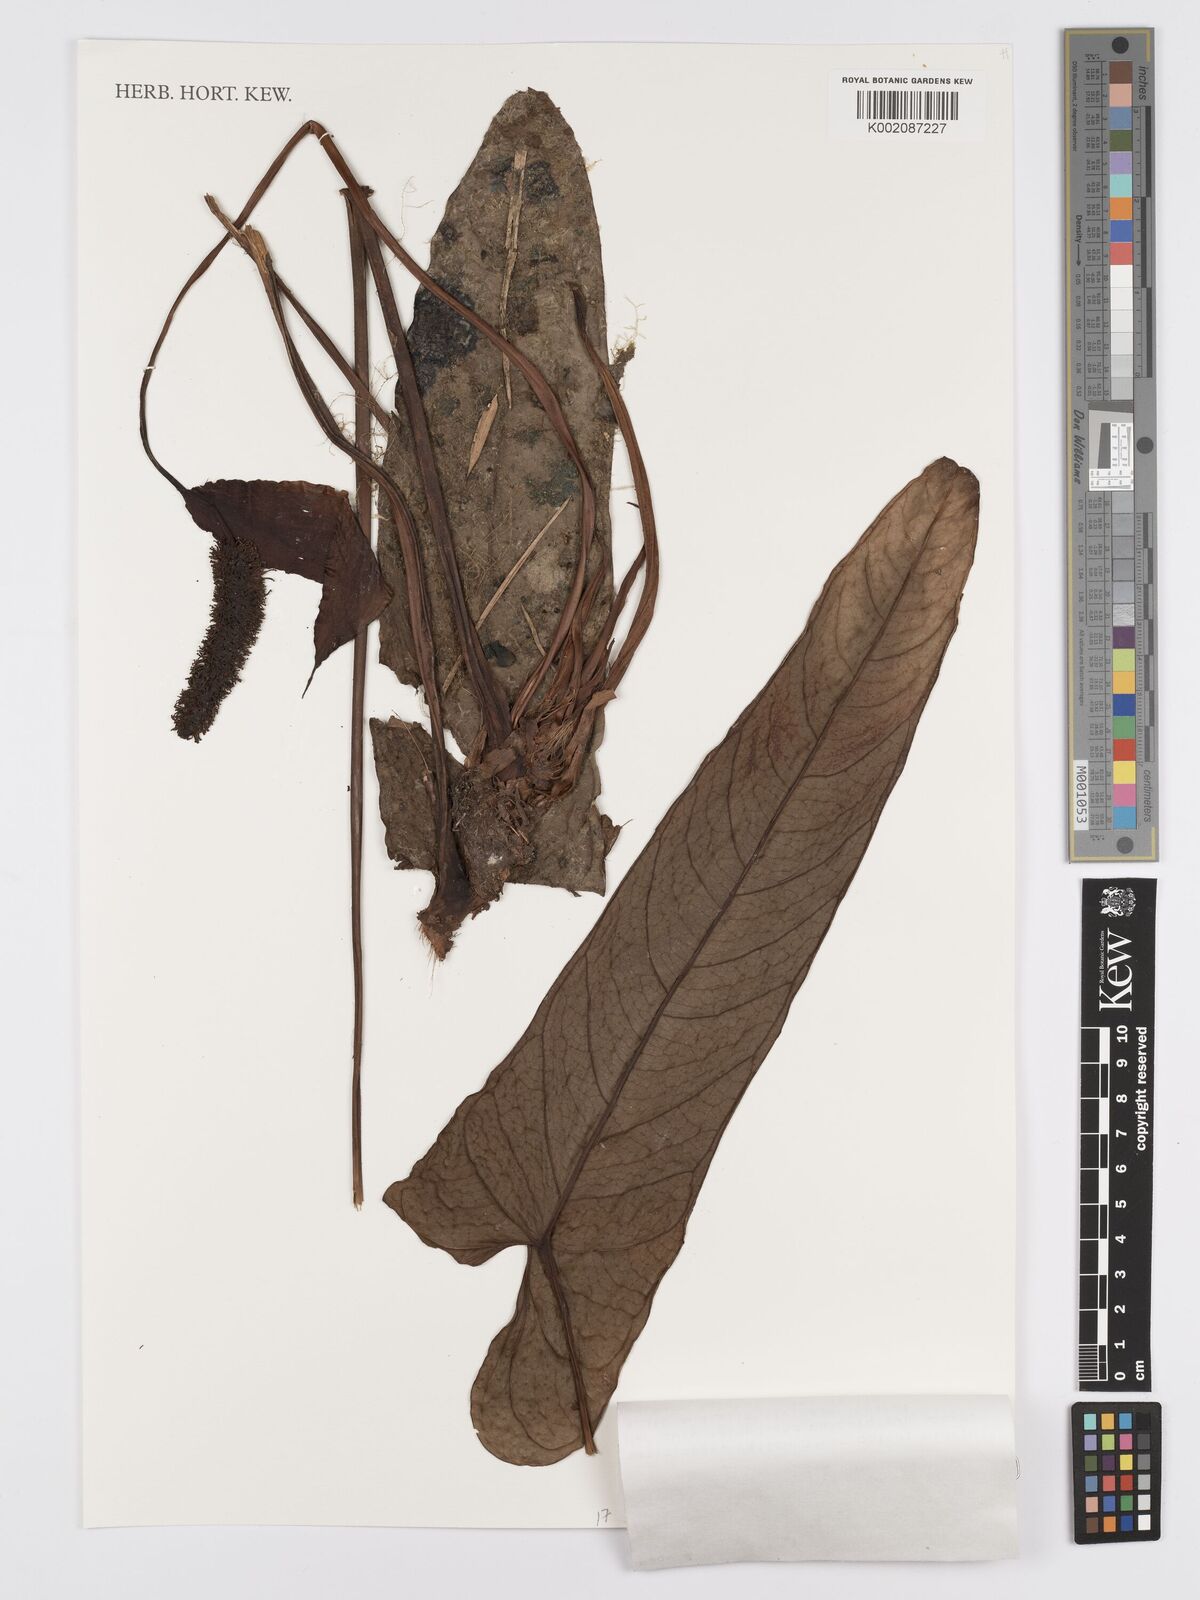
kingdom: Plantae
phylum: Tracheophyta
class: Liliopsida
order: Alismatales
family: Araceae
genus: Anthurium
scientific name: Anthurium variegatum
